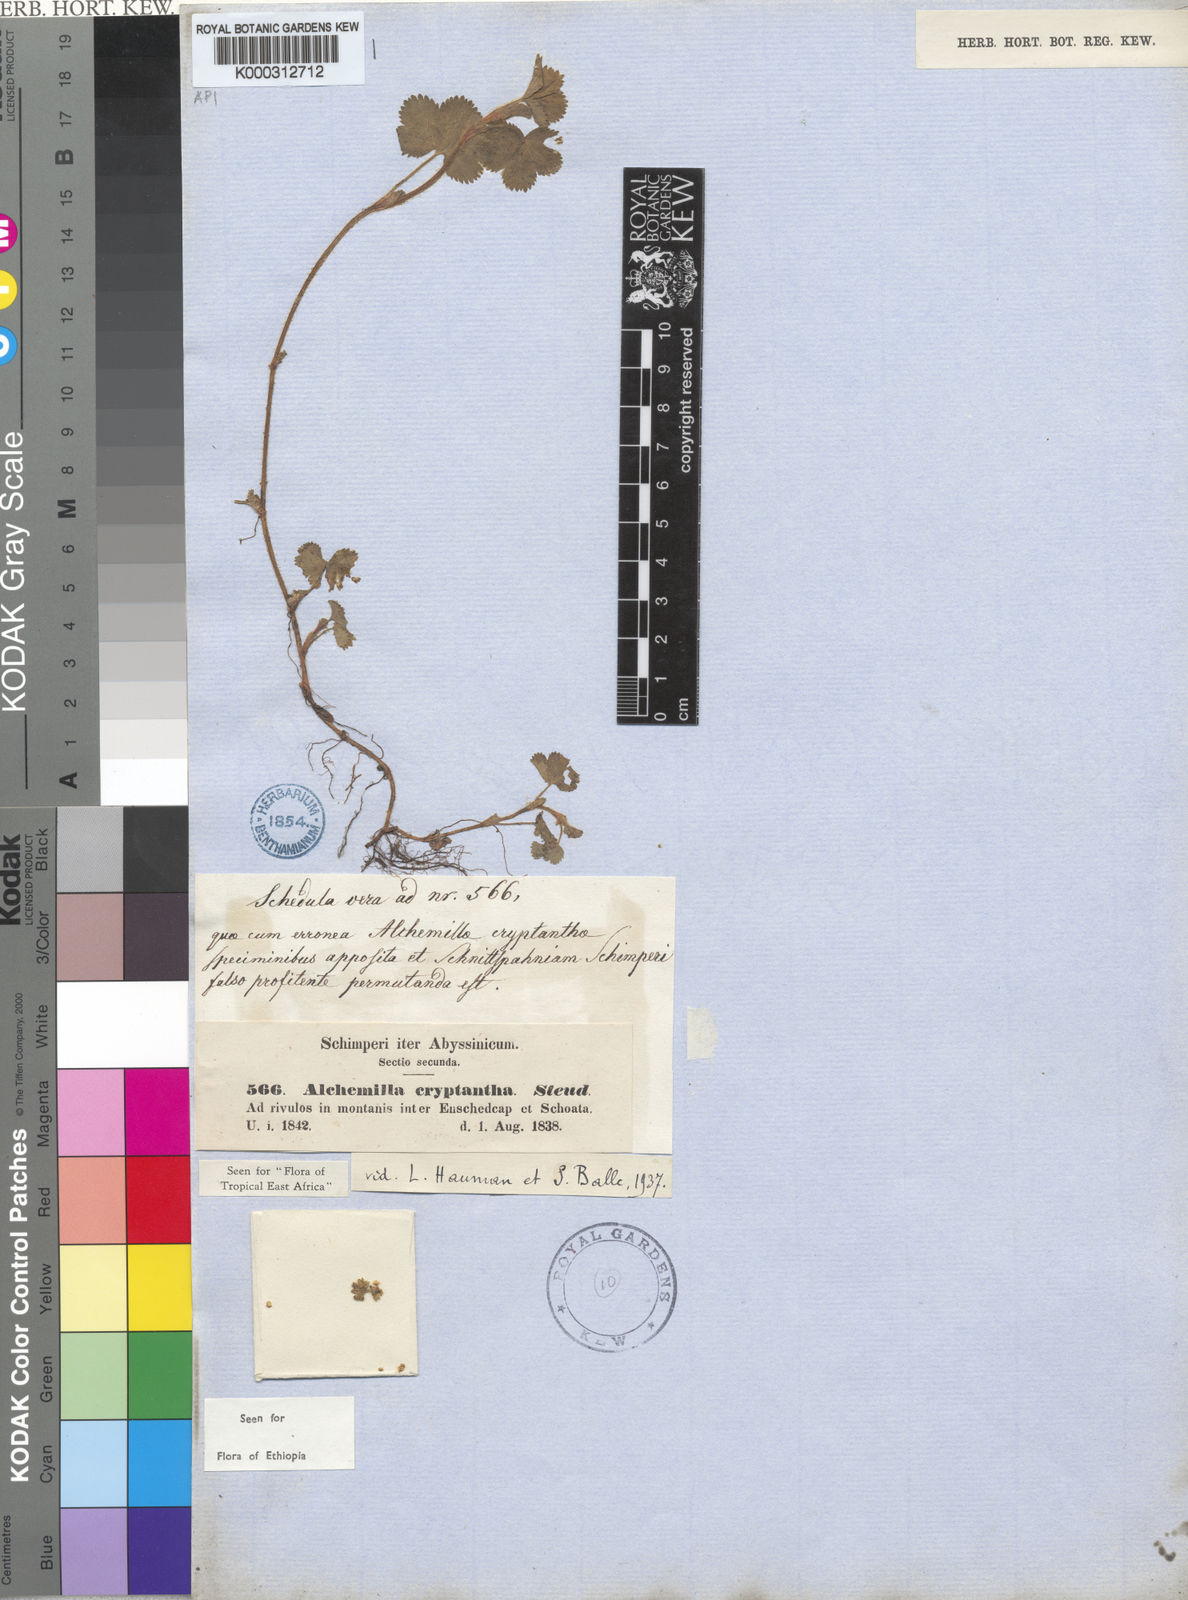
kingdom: Plantae
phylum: Tracheophyta
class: Magnoliopsida
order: Rosales
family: Rosaceae
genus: Alchemilla
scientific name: Alchemilla cryptantha
